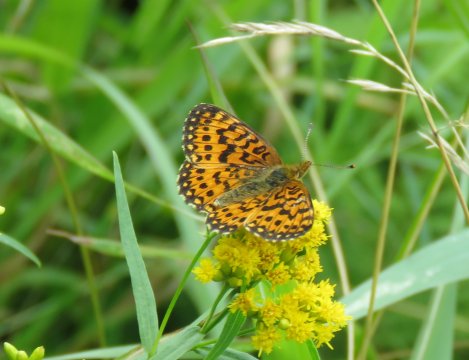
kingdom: Animalia
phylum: Arthropoda
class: Insecta
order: Lepidoptera
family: Nymphalidae
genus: Boloria
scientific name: Boloria selene
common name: Silver-bordered Fritillary
